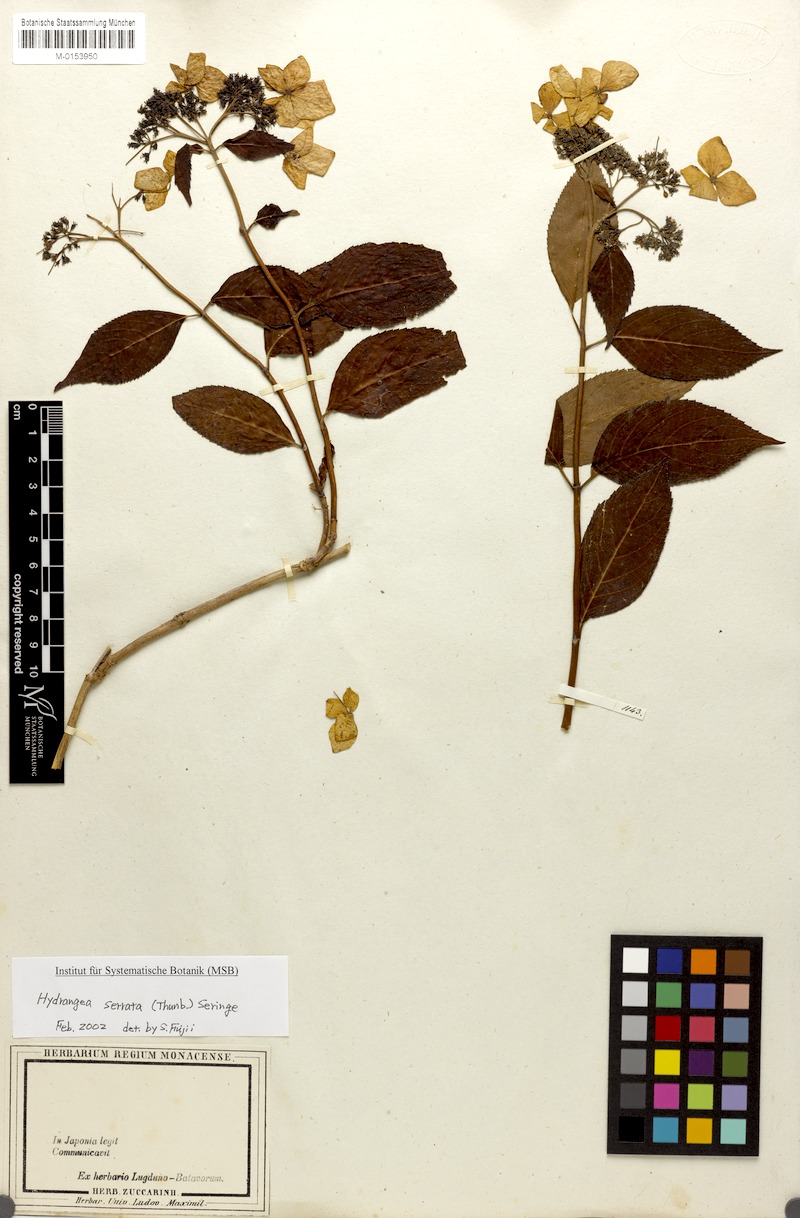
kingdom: Plantae
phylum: Tracheophyta
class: Magnoliopsida
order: Cornales
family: Hydrangeaceae
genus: Hydrangea
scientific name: Hydrangea serrata
